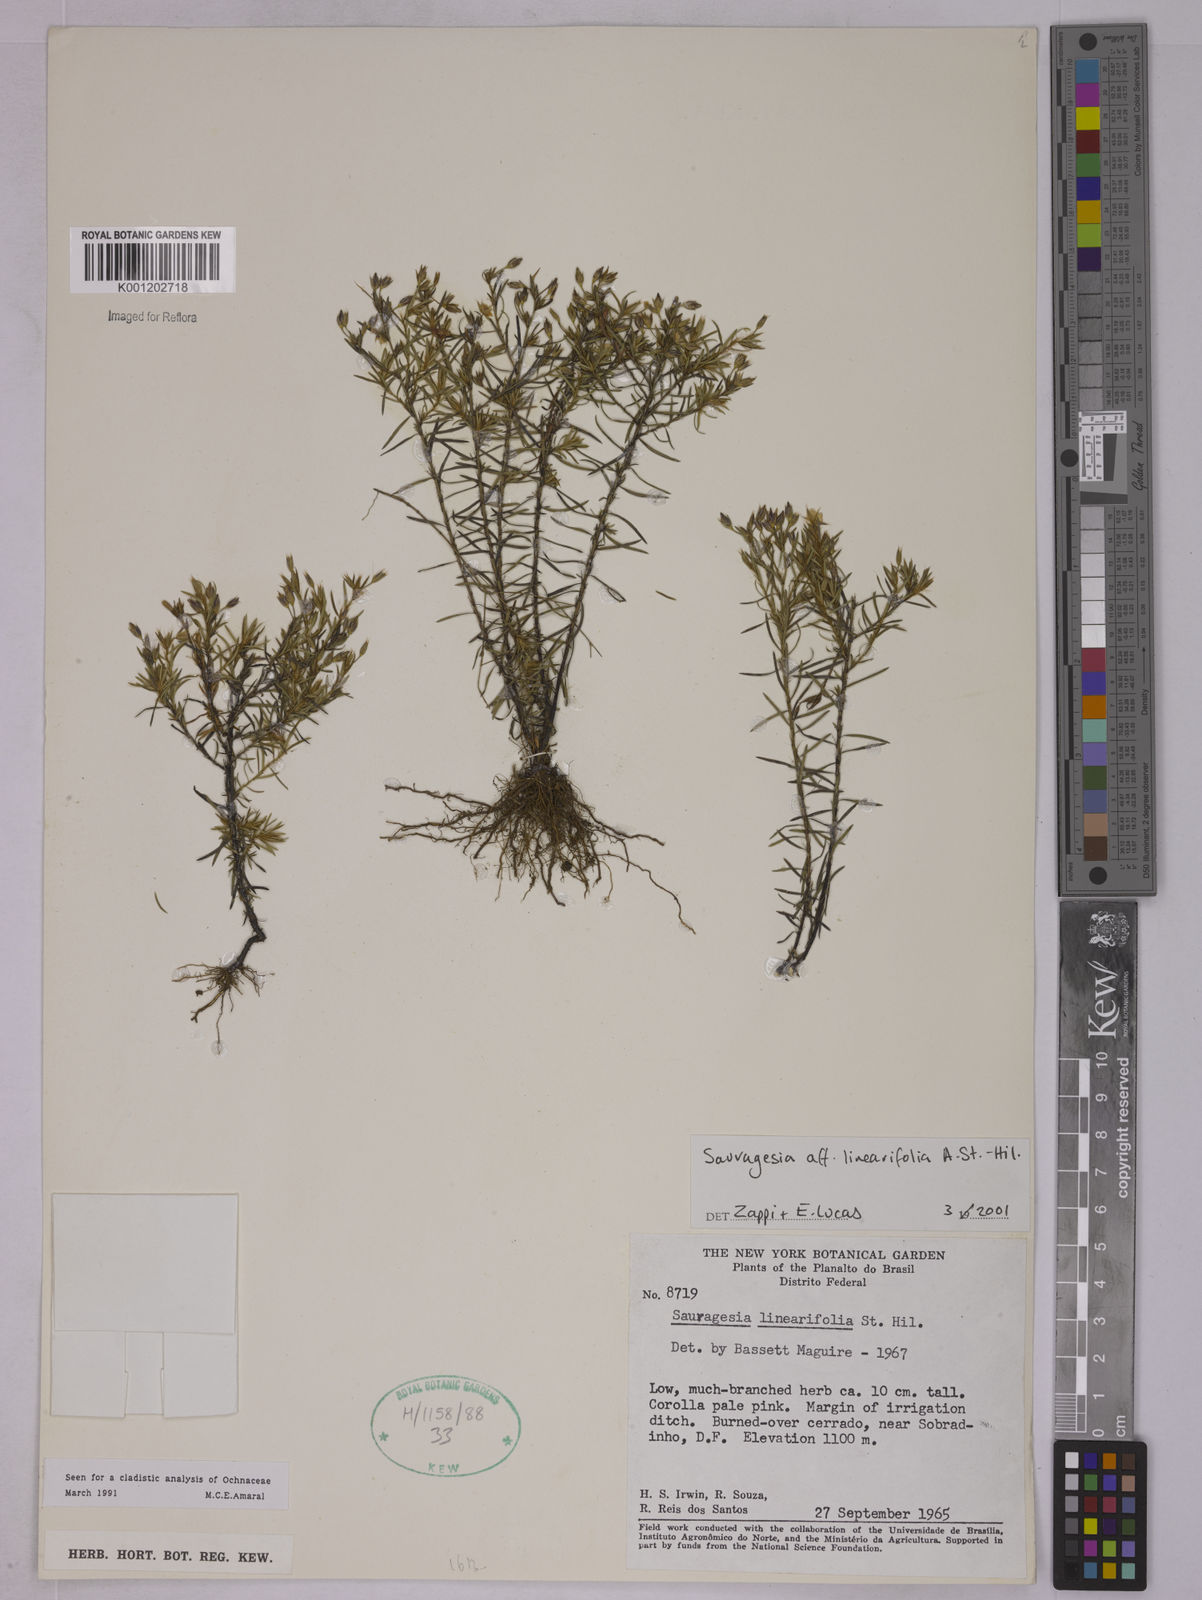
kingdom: Plantae
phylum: Tracheophyta
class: Magnoliopsida
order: Malpighiales
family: Ochnaceae
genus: Sauvagesia
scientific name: Sauvagesia linearifolia
